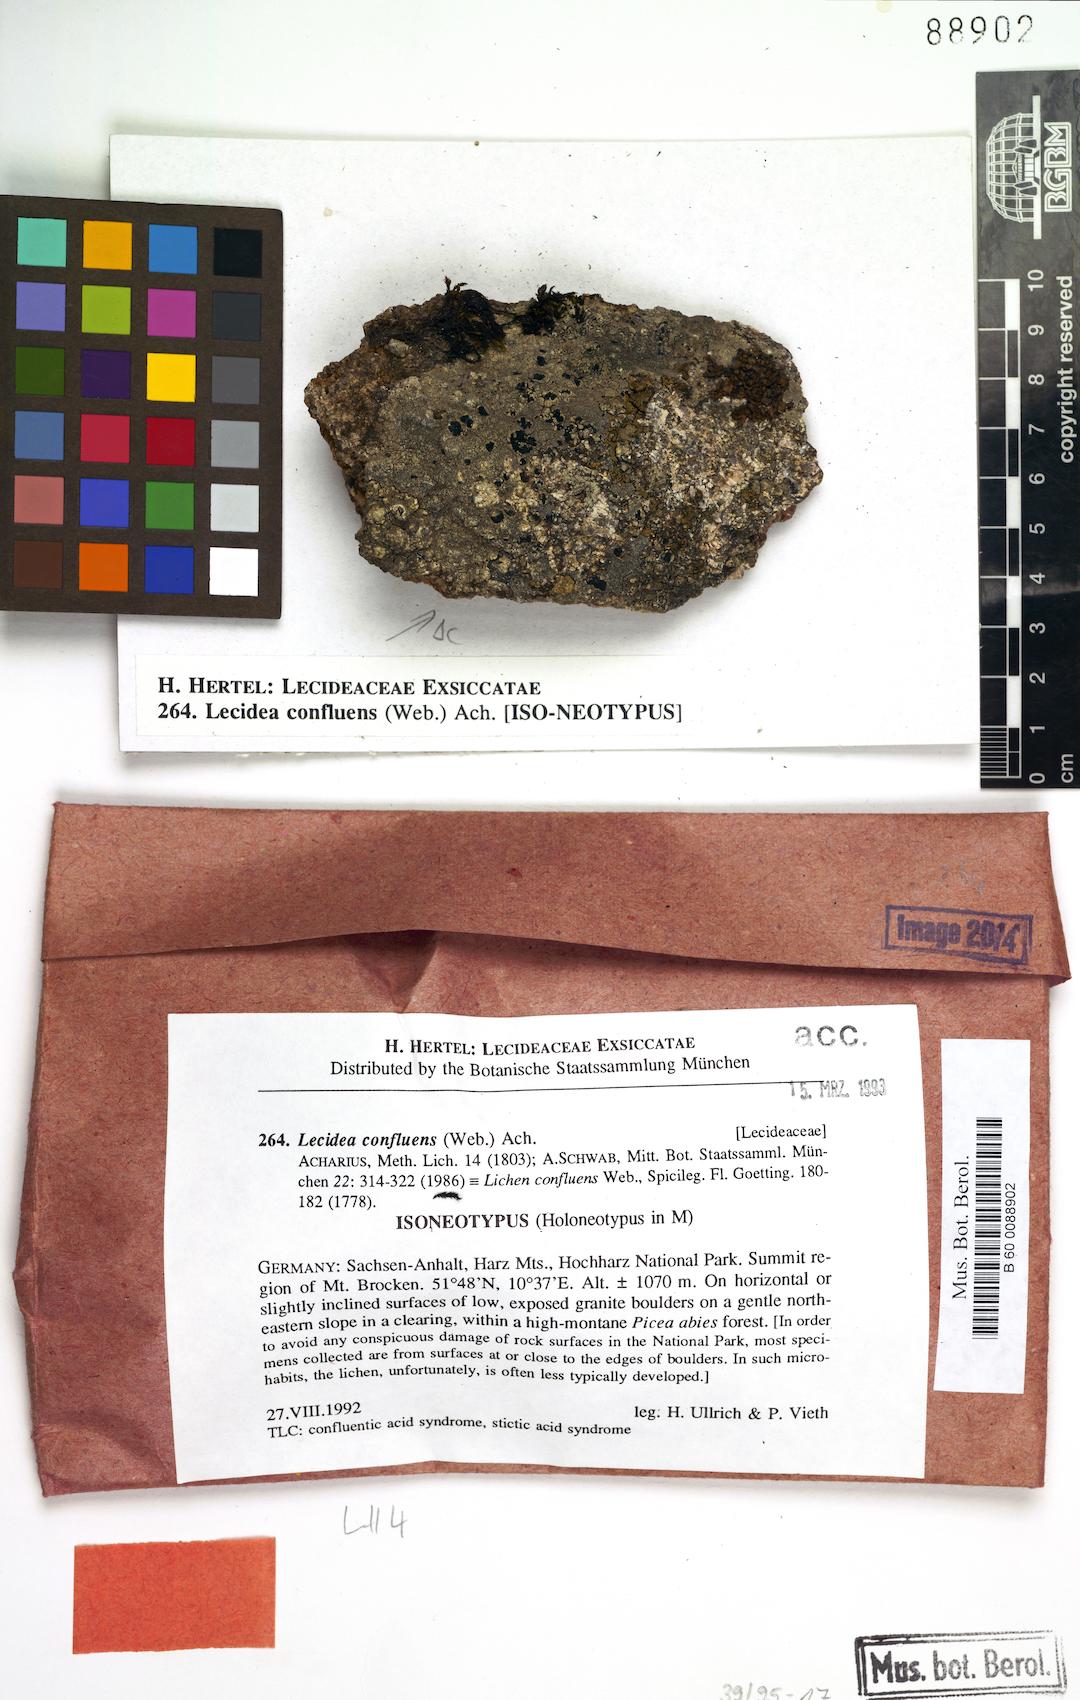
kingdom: Fungi
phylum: Ascomycota
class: Lecanoromycetes
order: Lecideales
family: Lecideaceae
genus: Lecidea
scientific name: Lecidea confluens
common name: Confluent disc lichen
